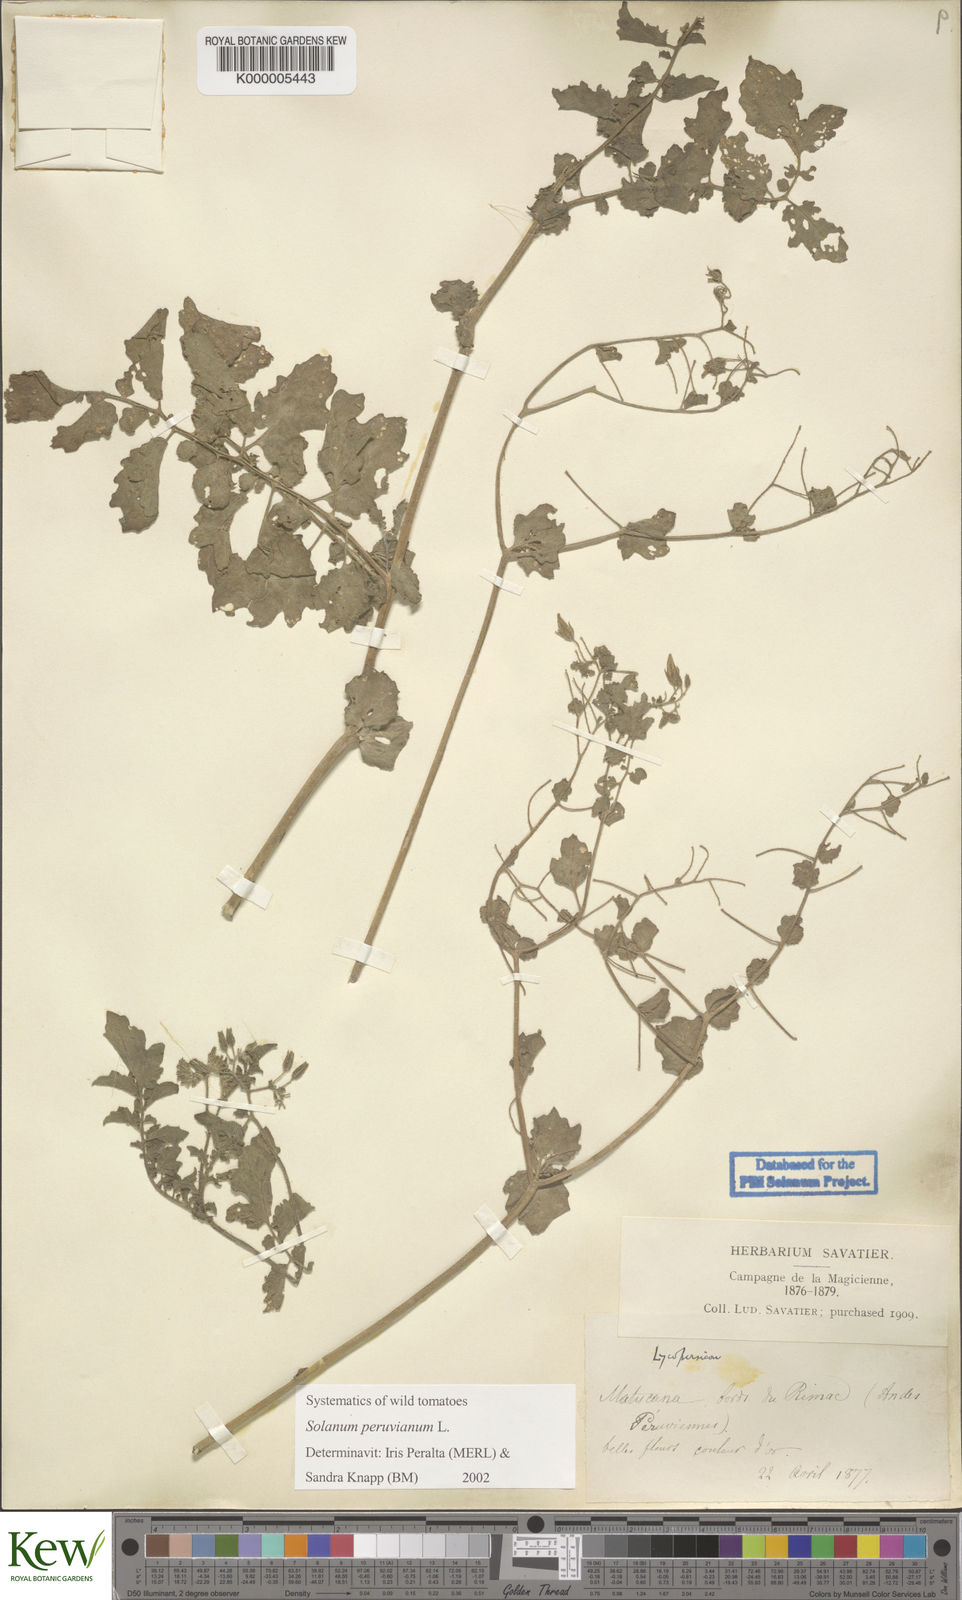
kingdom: Plantae
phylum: Tracheophyta
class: Magnoliopsida
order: Solanales
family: Solanaceae
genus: Solanum
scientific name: Solanum peruvianum
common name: Peruvian nightshade
